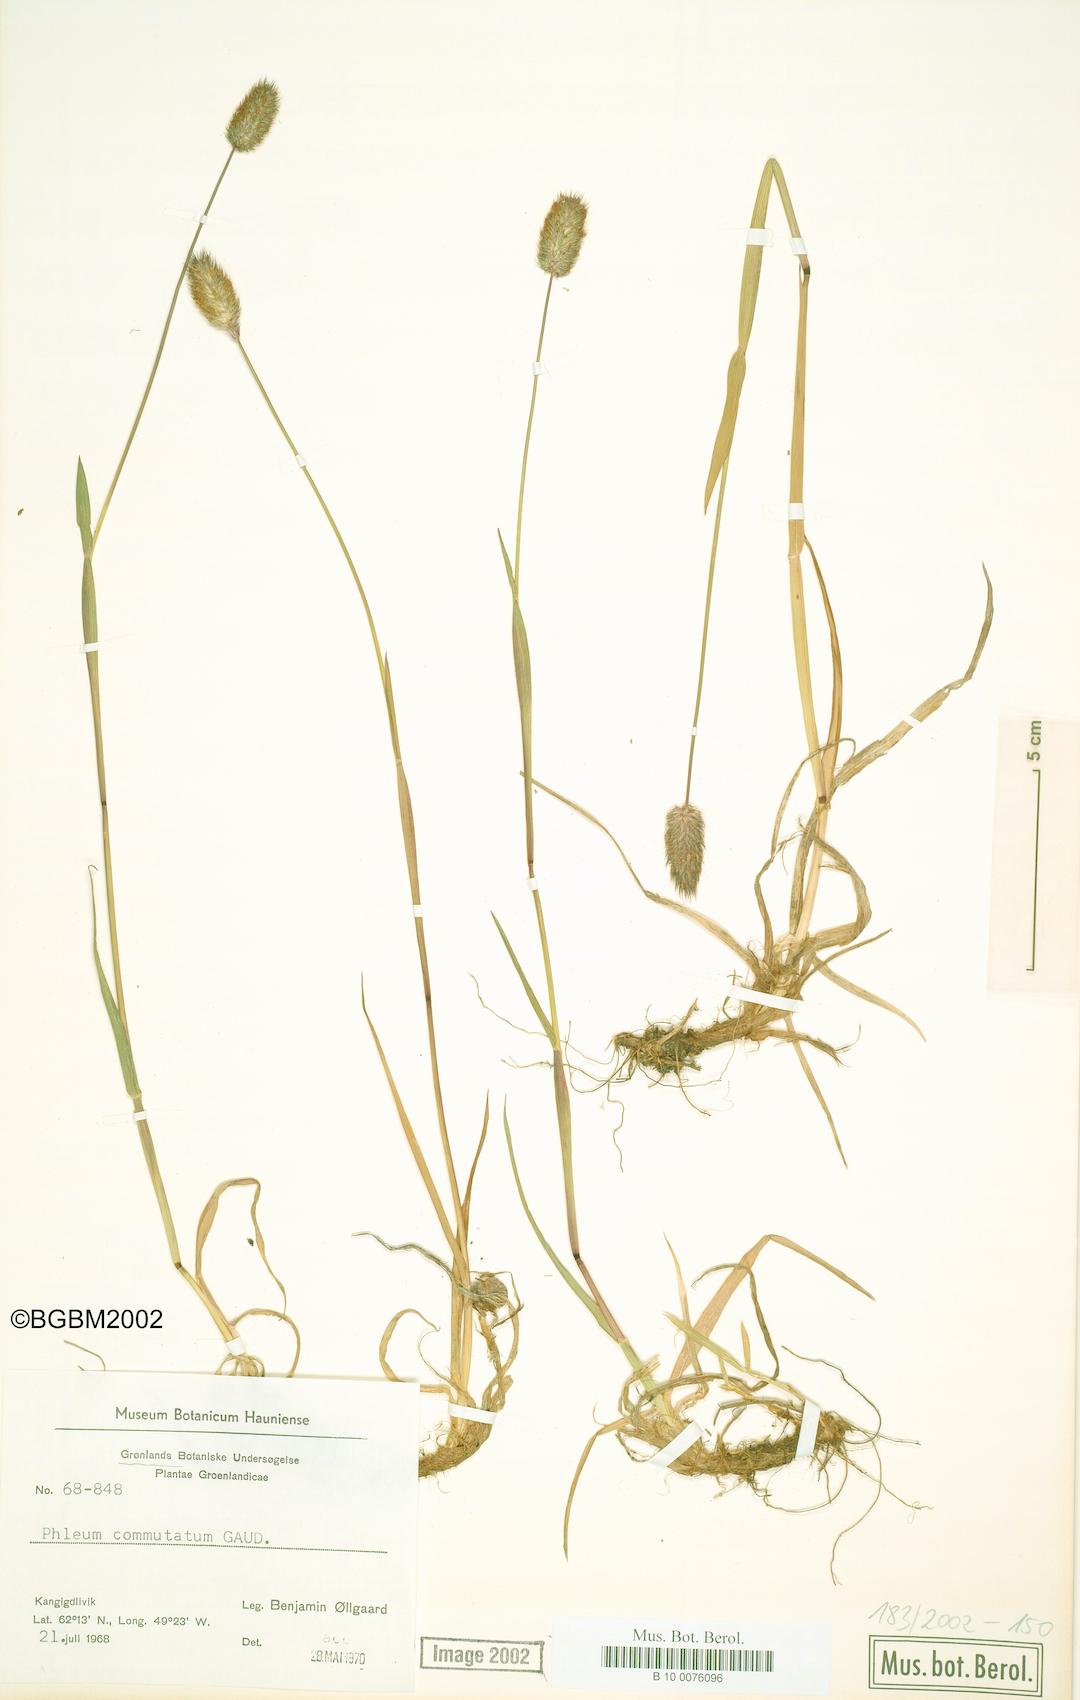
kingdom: Plantae
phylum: Tracheophyta
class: Liliopsida
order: Poales
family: Poaceae
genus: Phleum
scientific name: Phleum alpinum
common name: Alpine cat's-tail
